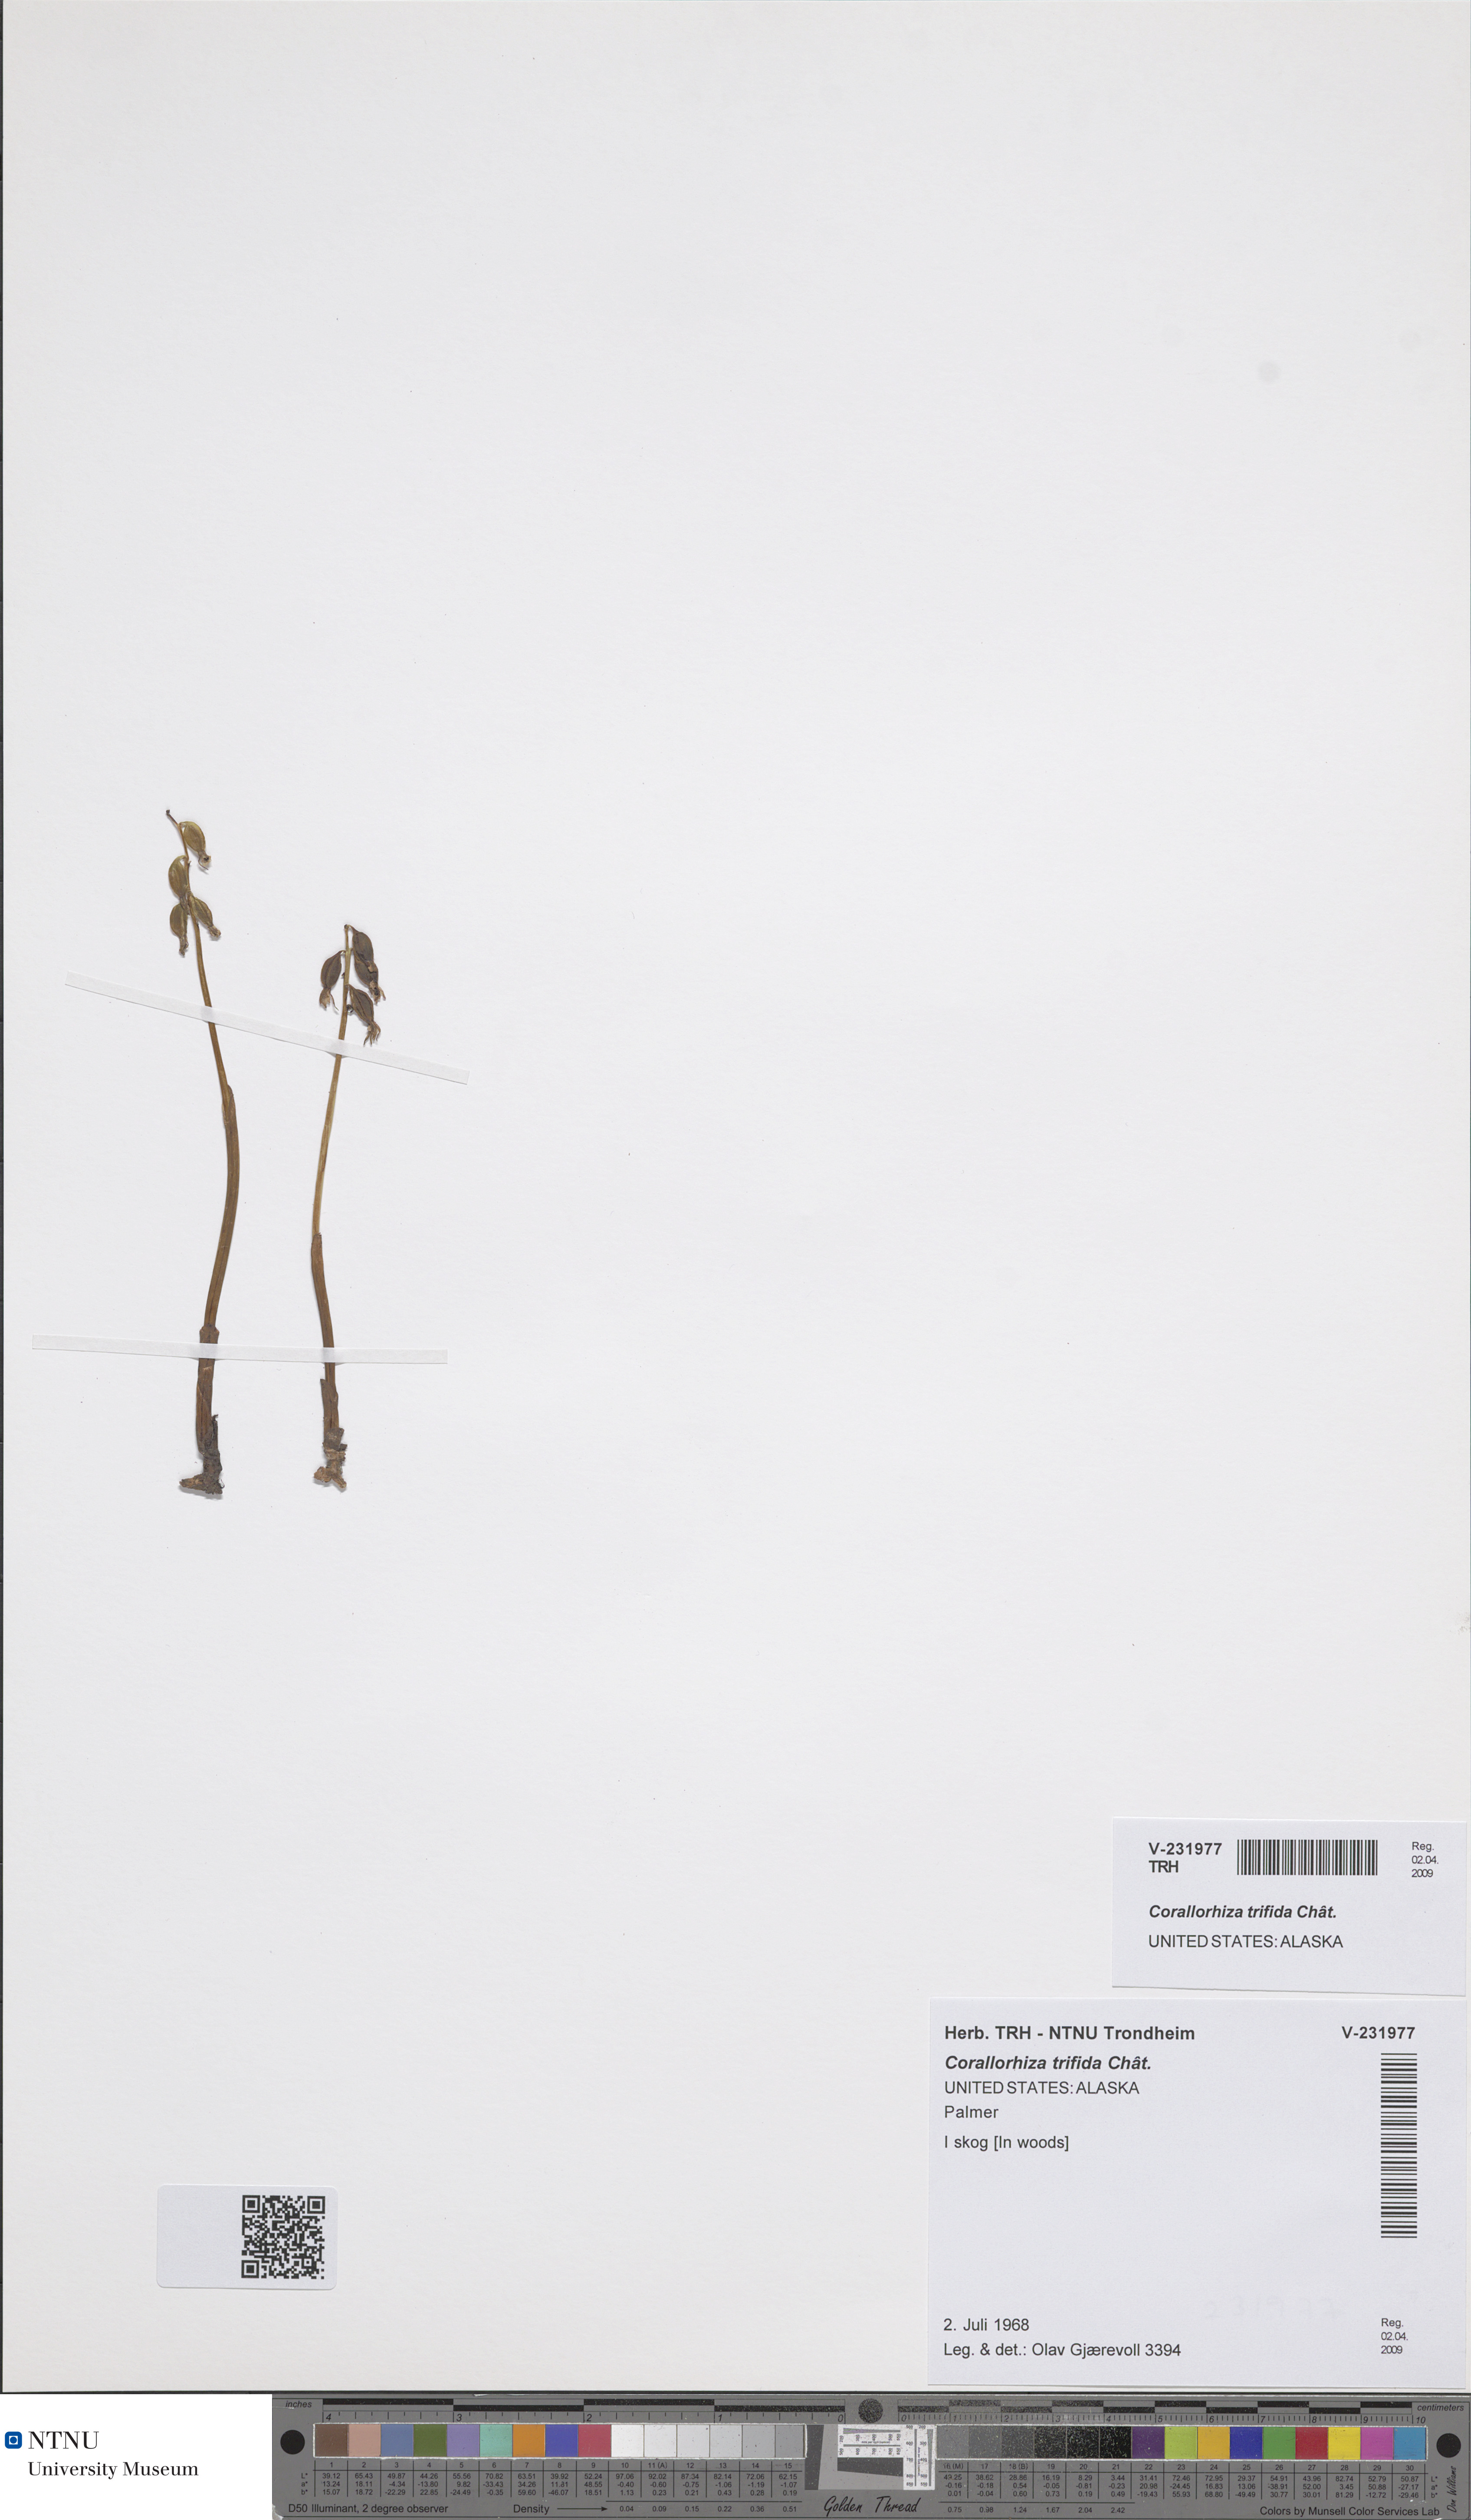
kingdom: Plantae
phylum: Tracheophyta
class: Liliopsida
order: Asparagales
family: Orchidaceae
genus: Corallorhiza
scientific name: Corallorhiza trifida
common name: Yellow coralroot
